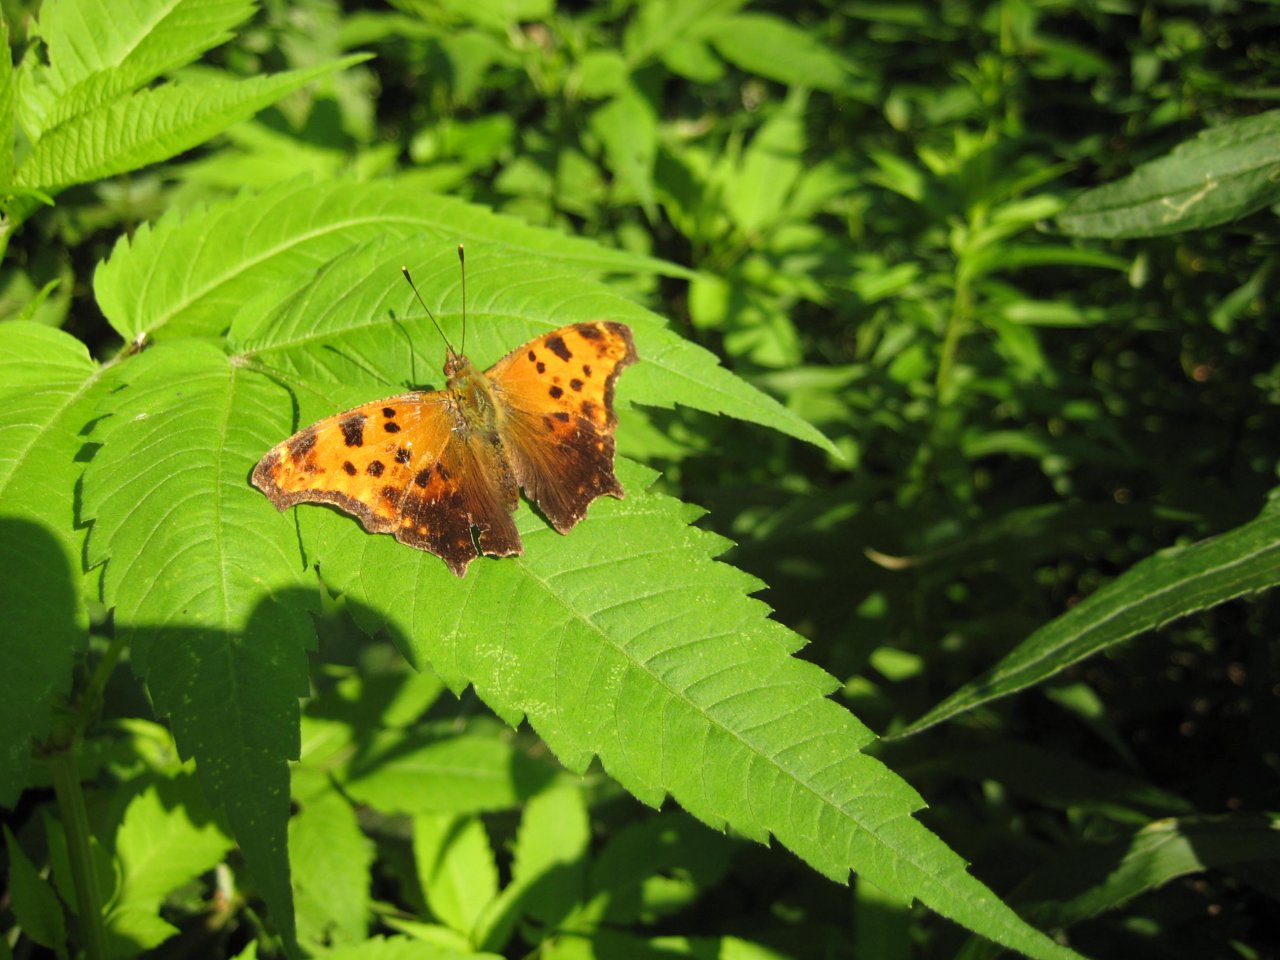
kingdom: Animalia
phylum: Arthropoda
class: Insecta
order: Lepidoptera
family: Nymphalidae
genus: Polygonia
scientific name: Polygonia comma
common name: Eastern Comma
